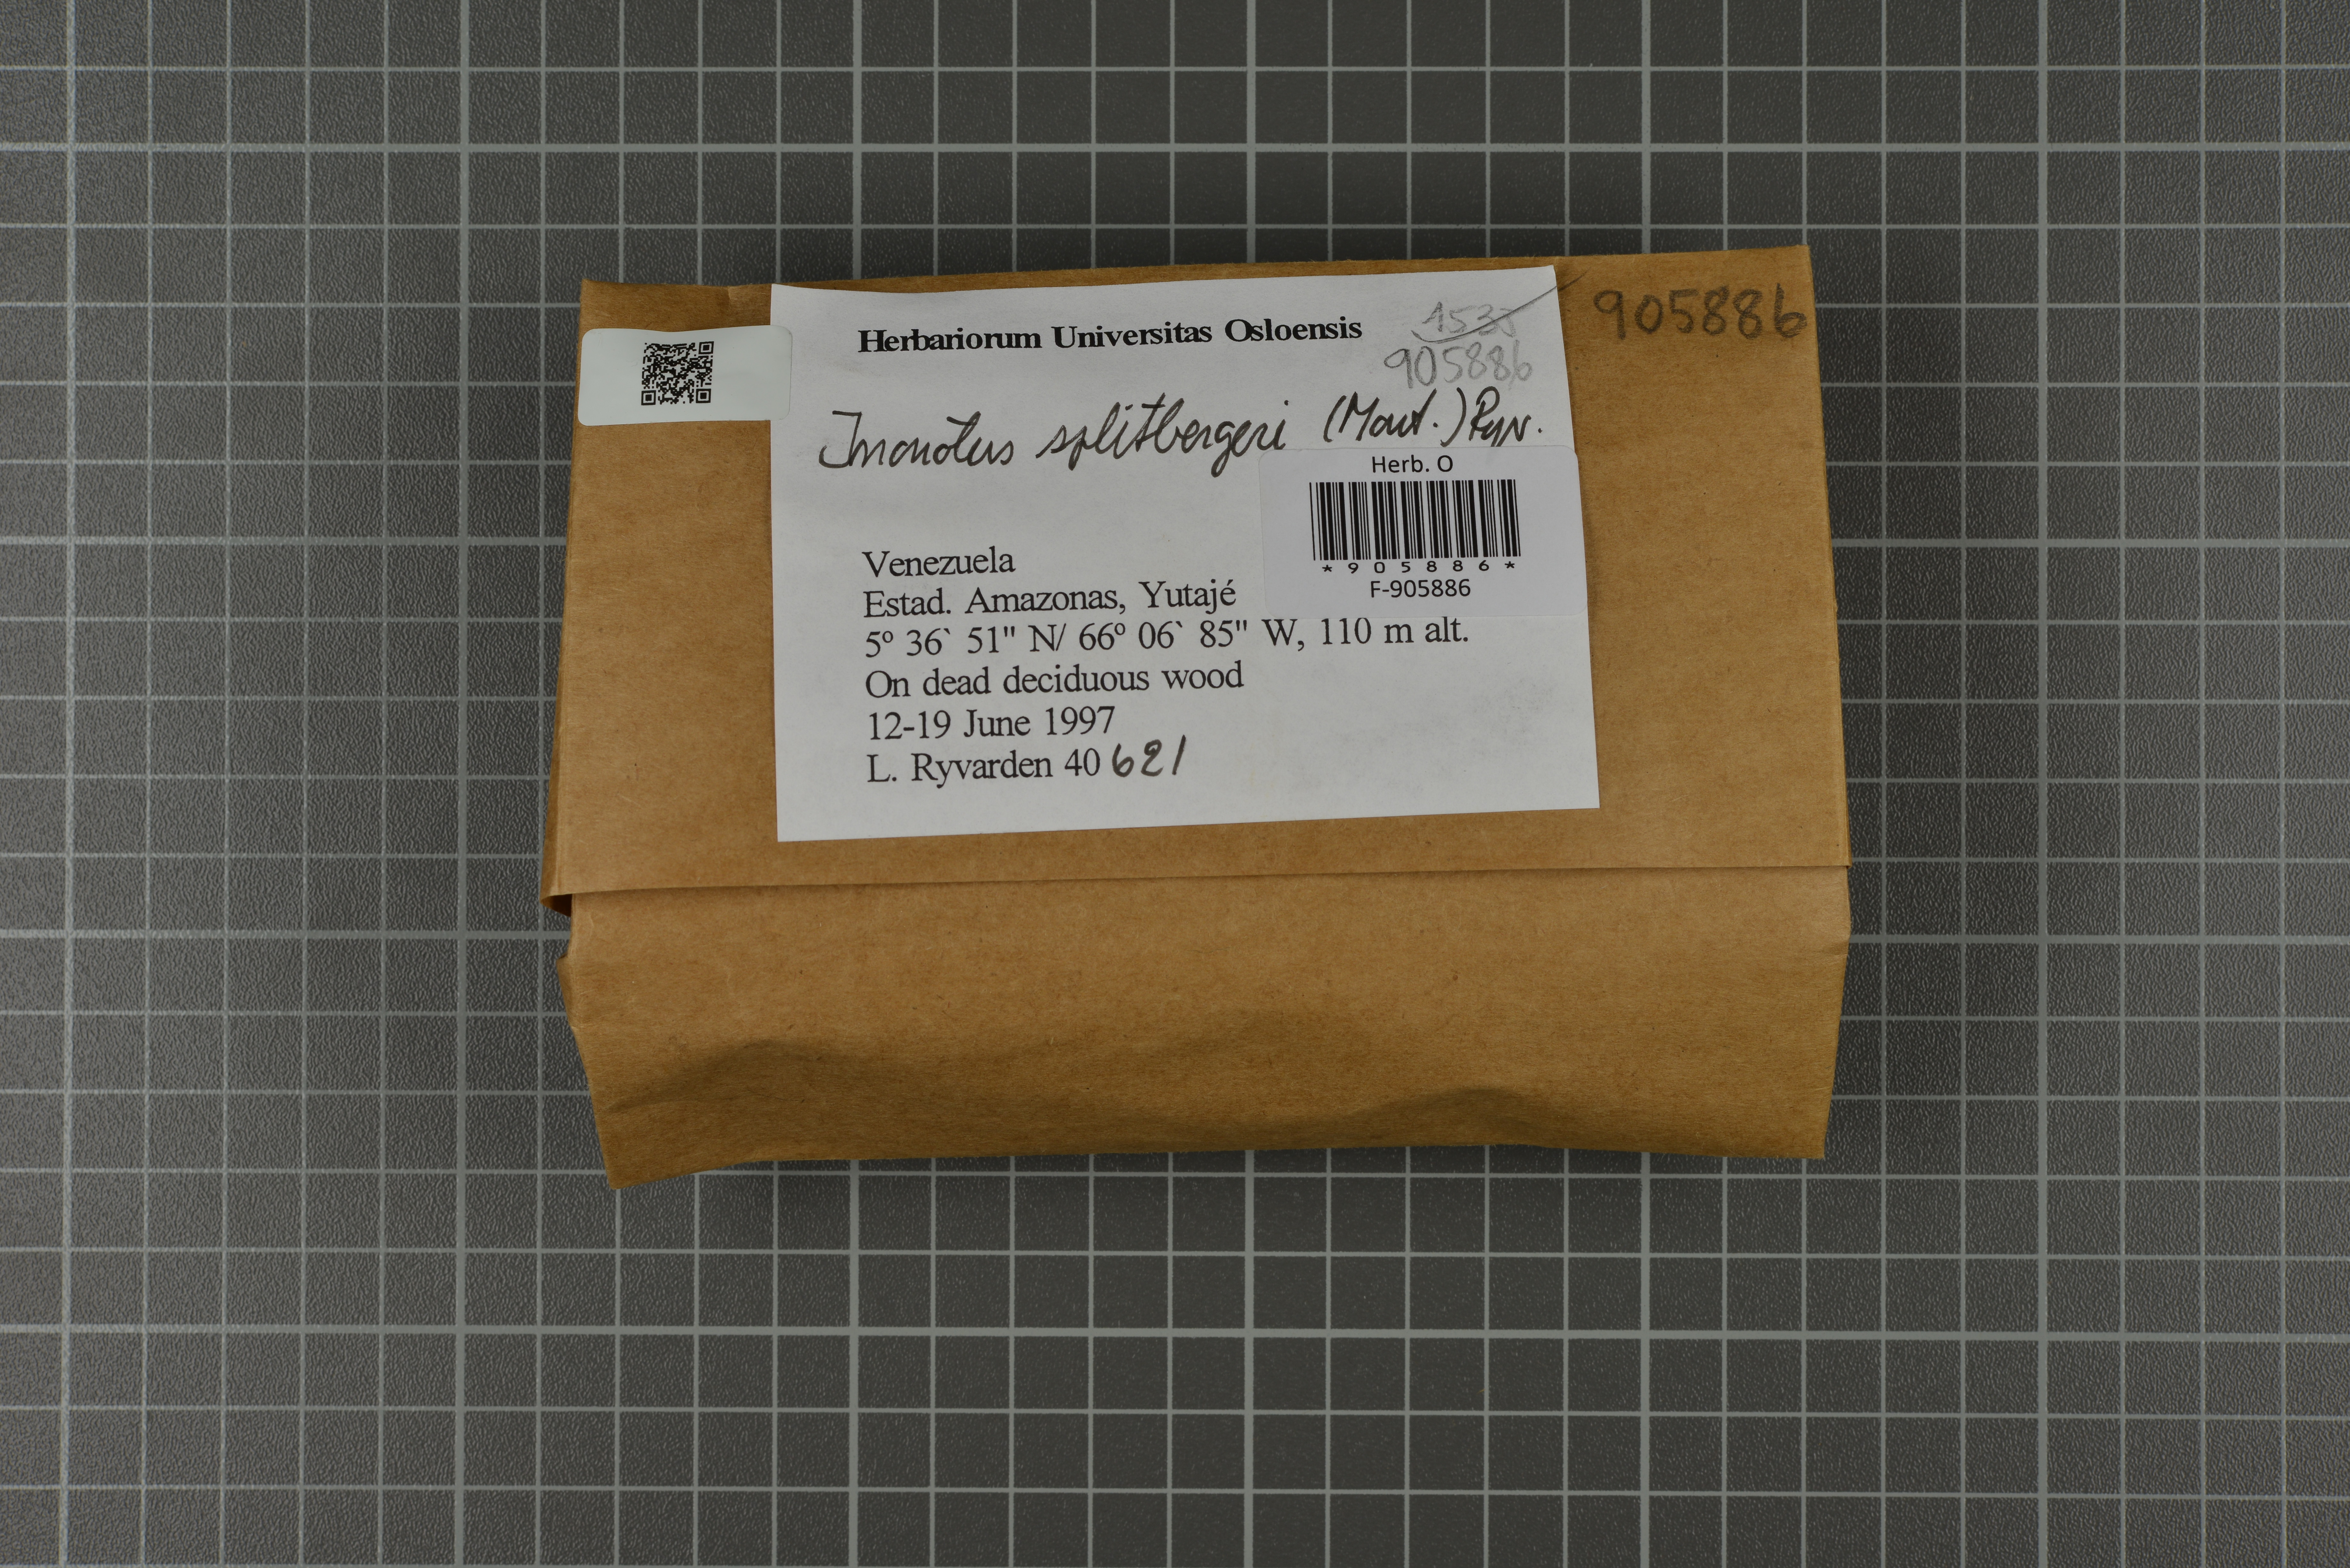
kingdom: Fungi
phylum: Basidiomycota
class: Agaricomycetes
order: Hymenochaetales
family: Hymenochaetaceae
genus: Inonotus
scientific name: Inonotus splitgerberi
